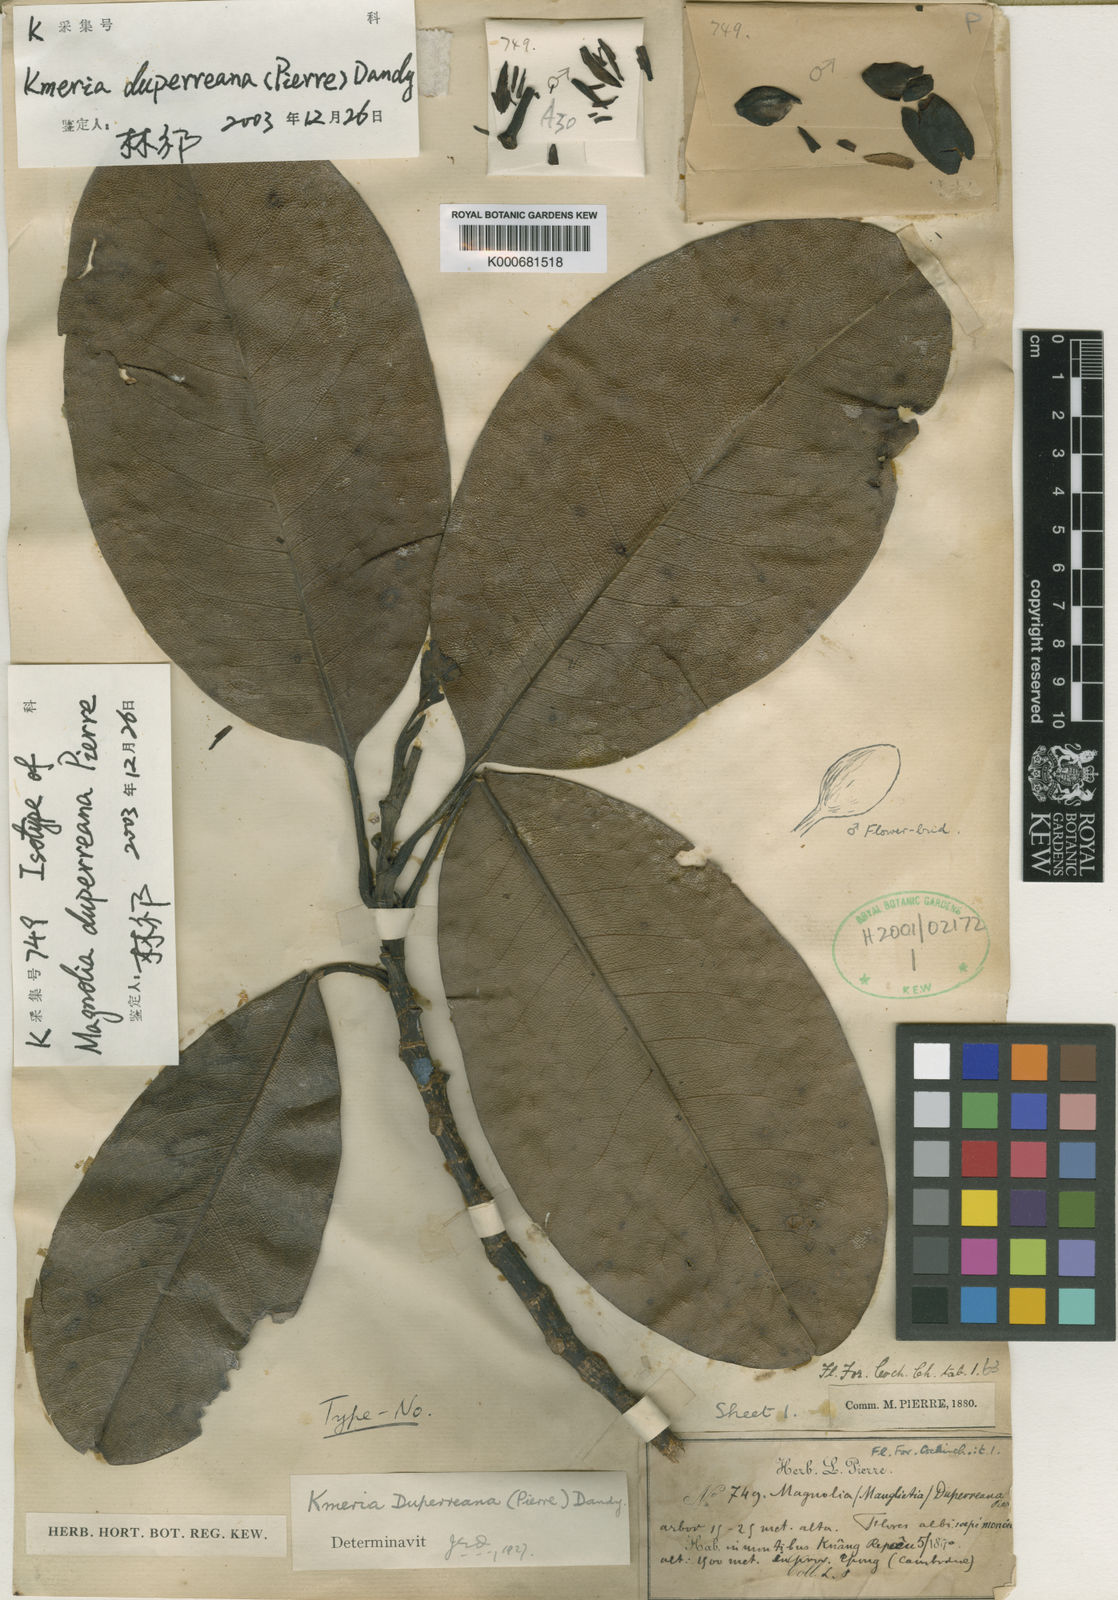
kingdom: Plantae
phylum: Tracheophyta
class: Magnoliopsida
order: Magnoliales
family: Magnoliaceae
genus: Magnolia
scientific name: Magnolia duperreana
